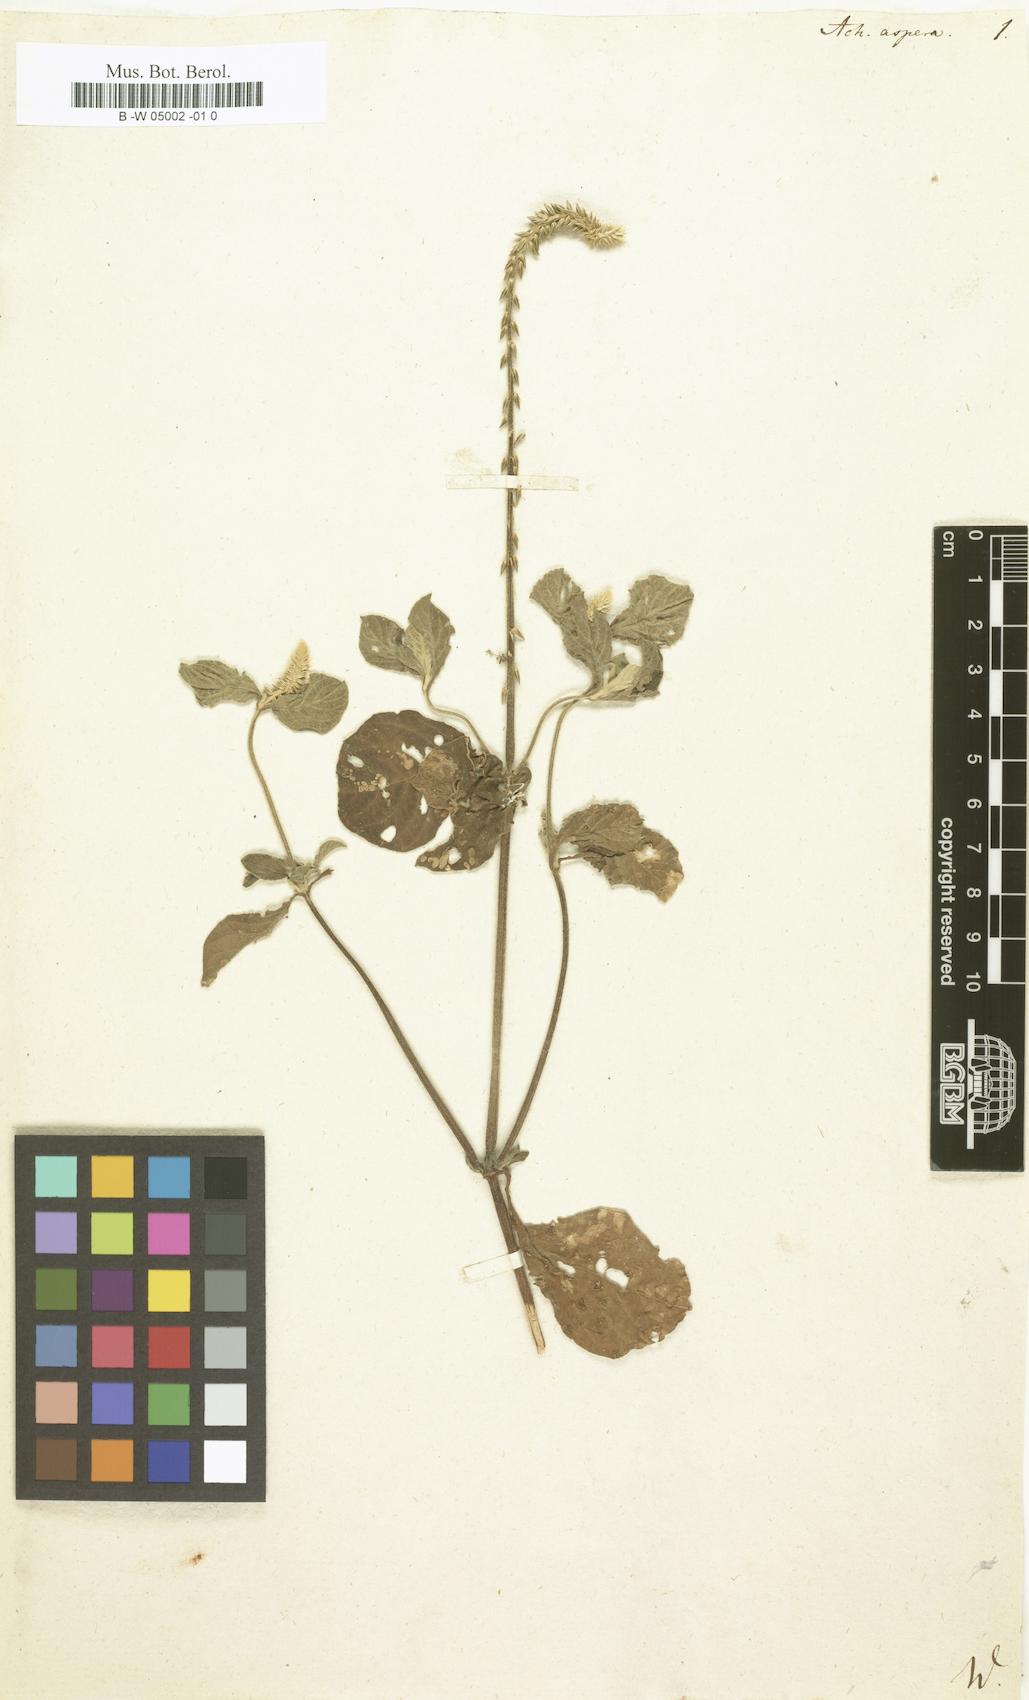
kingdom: Plantae
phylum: Tracheophyta
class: Magnoliopsida
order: Caryophyllales
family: Amaranthaceae
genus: Achyranthes
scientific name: Achyranthes aspera
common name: Devil's horsewhip
